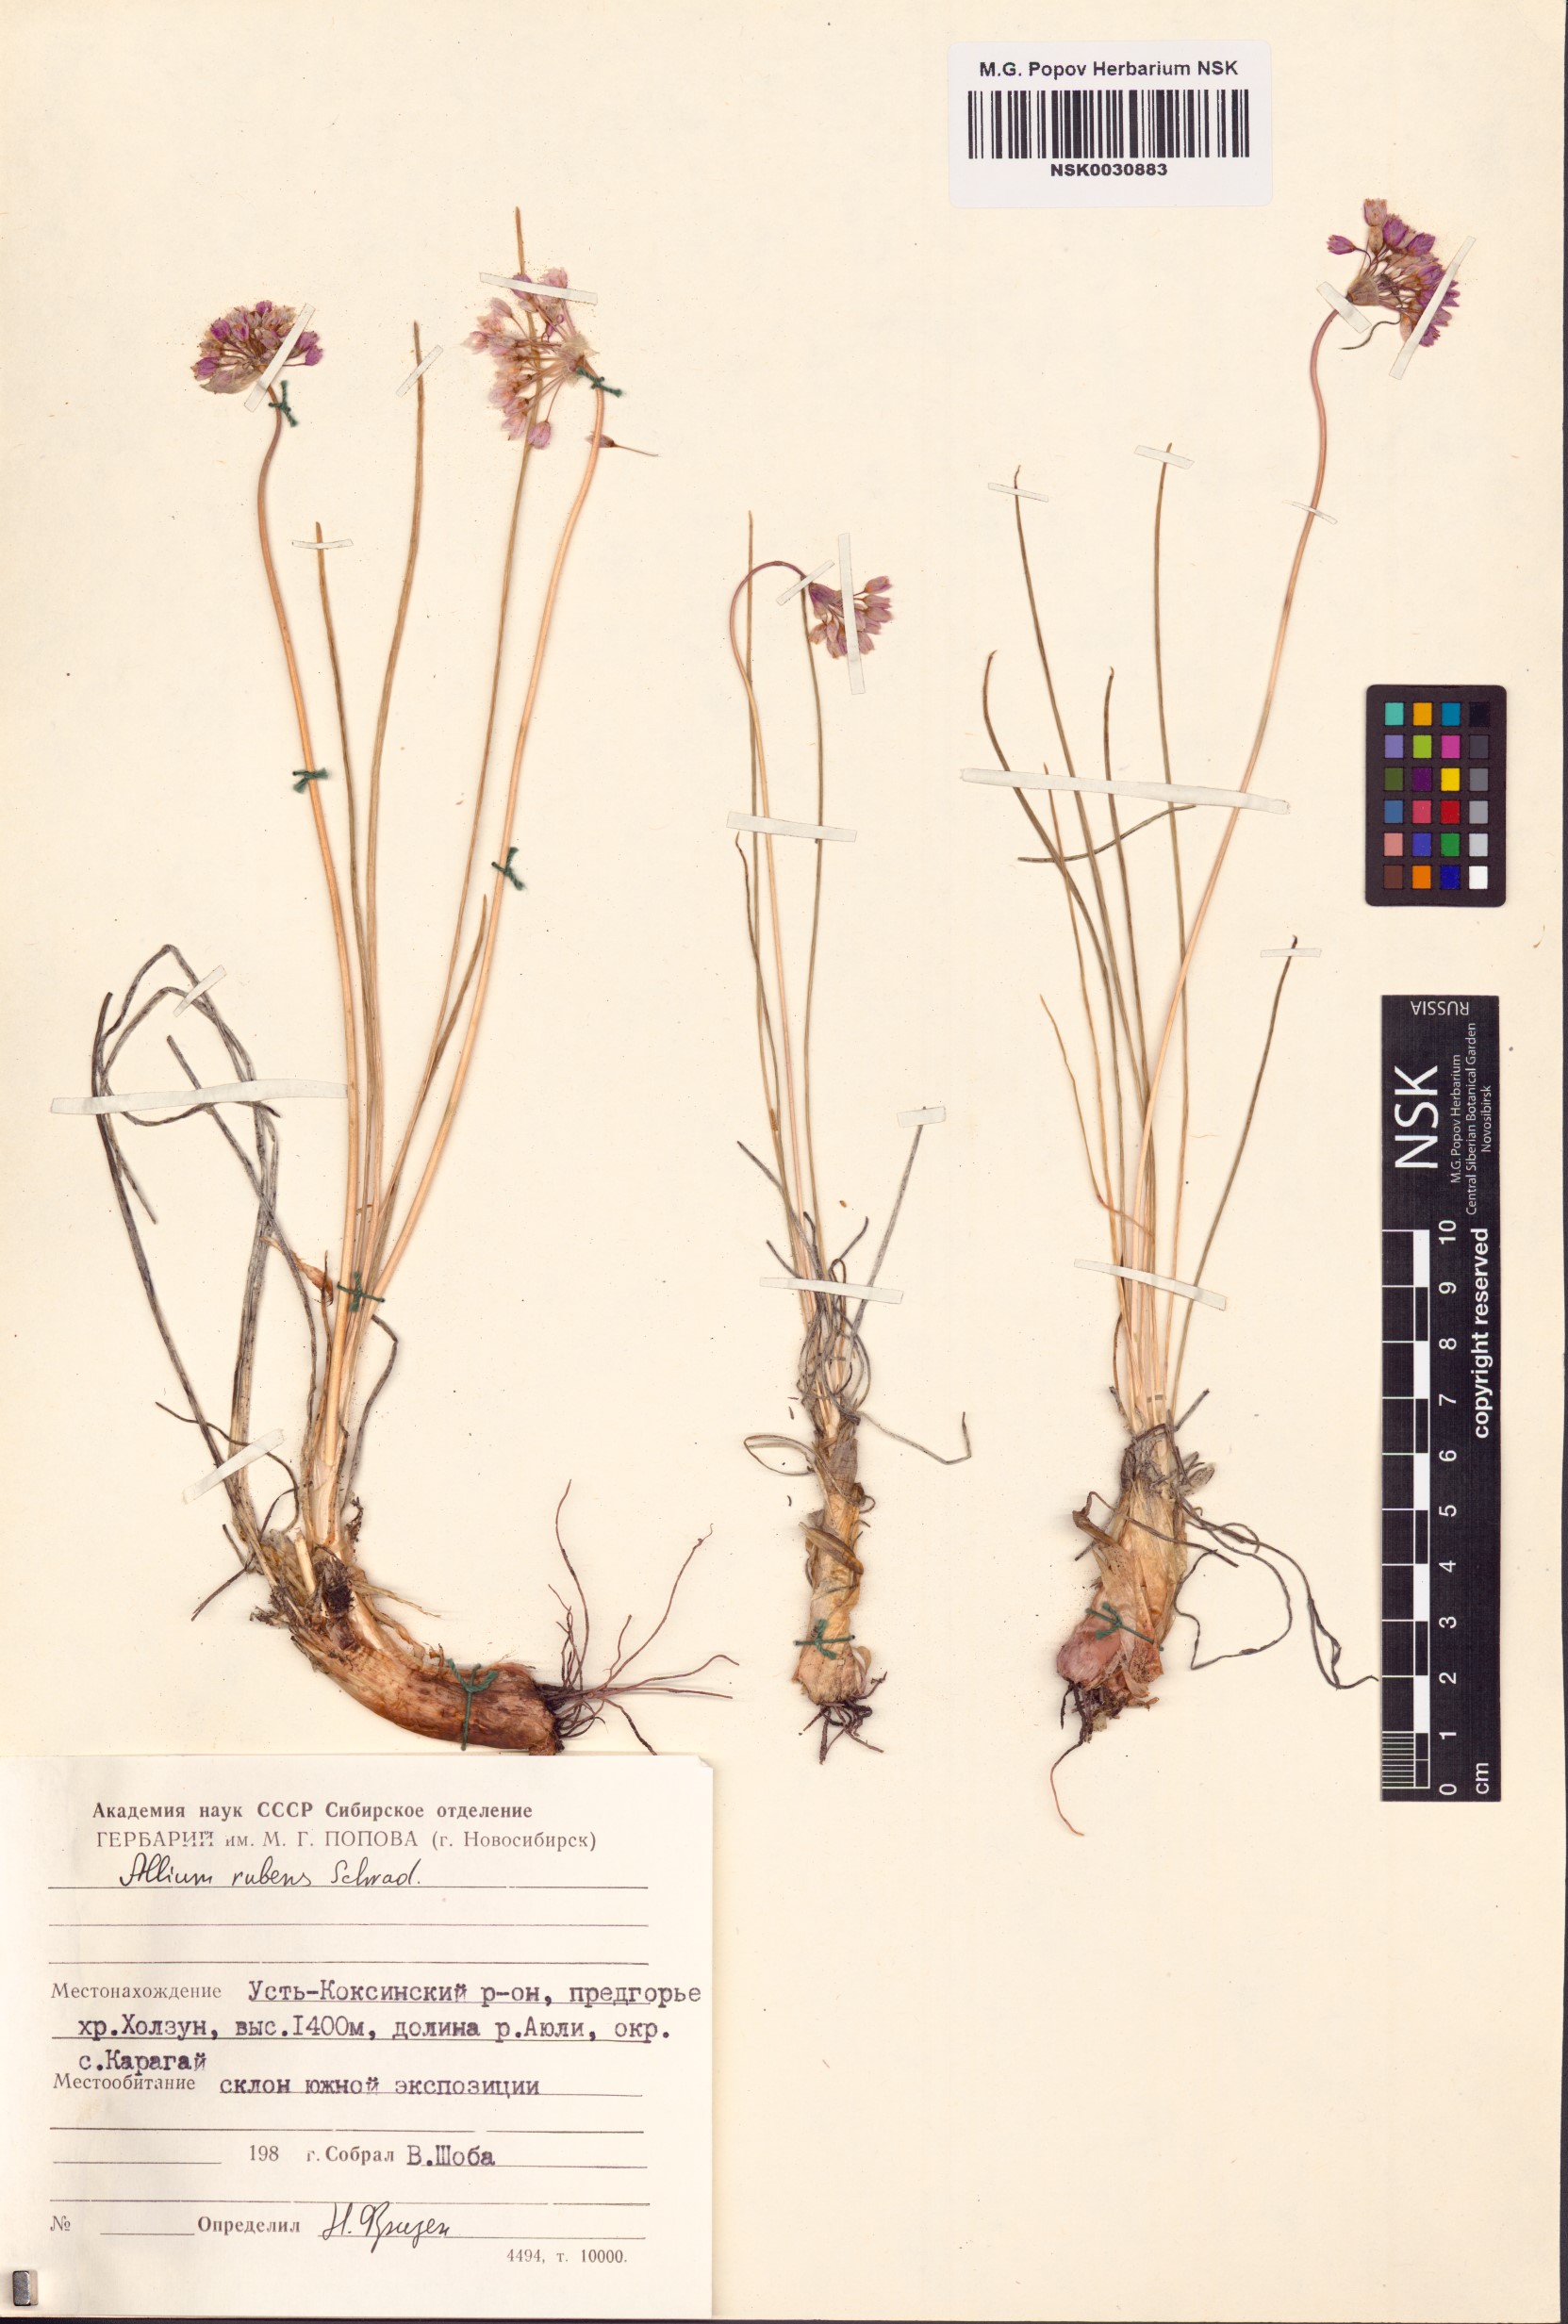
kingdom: Plantae
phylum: Tracheophyta
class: Liliopsida
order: Asparagales
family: Amaryllidaceae
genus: Allium
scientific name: Allium rubens
